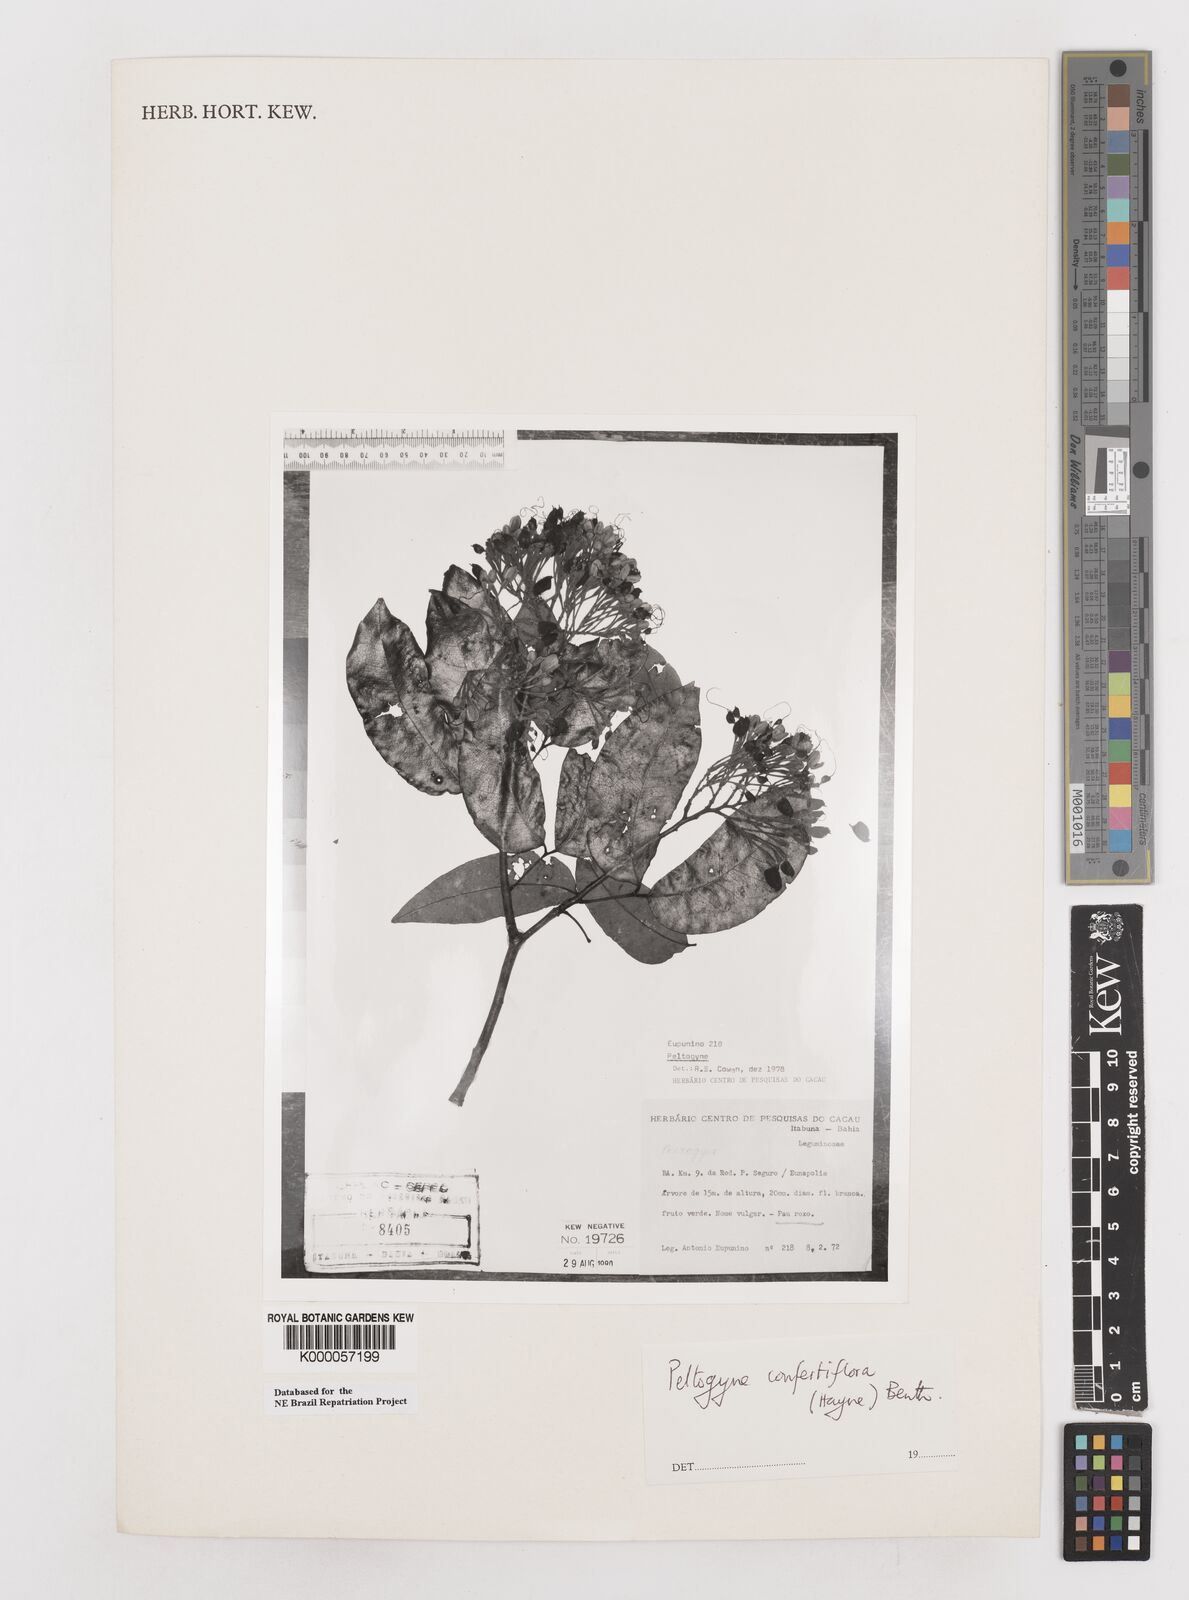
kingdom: Plantae
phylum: Tracheophyta
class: Magnoliopsida
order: Fabales
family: Fabaceae
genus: Peltogyne
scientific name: Peltogyne confertiflora
